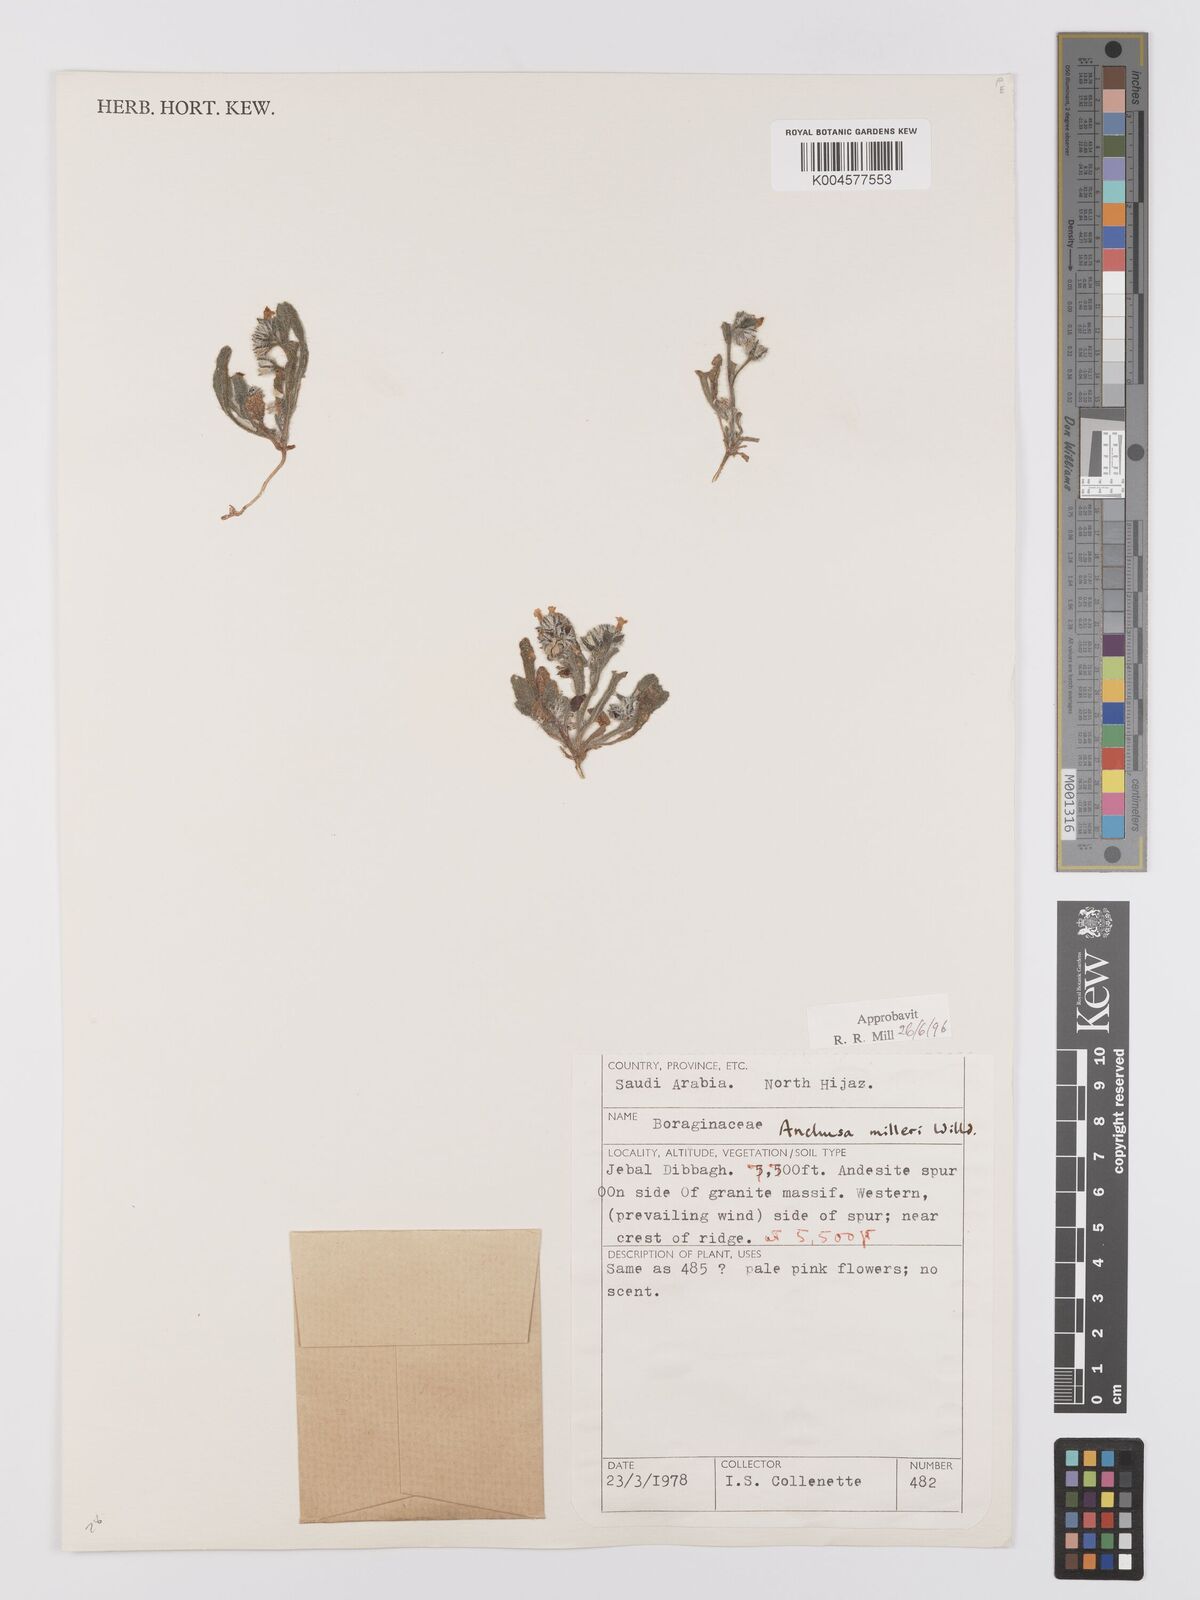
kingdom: Plantae
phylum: Tracheophyta
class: Magnoliopsida
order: Boraginales
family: Boraginaceae
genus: Anchusa
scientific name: Anchusa milleri
